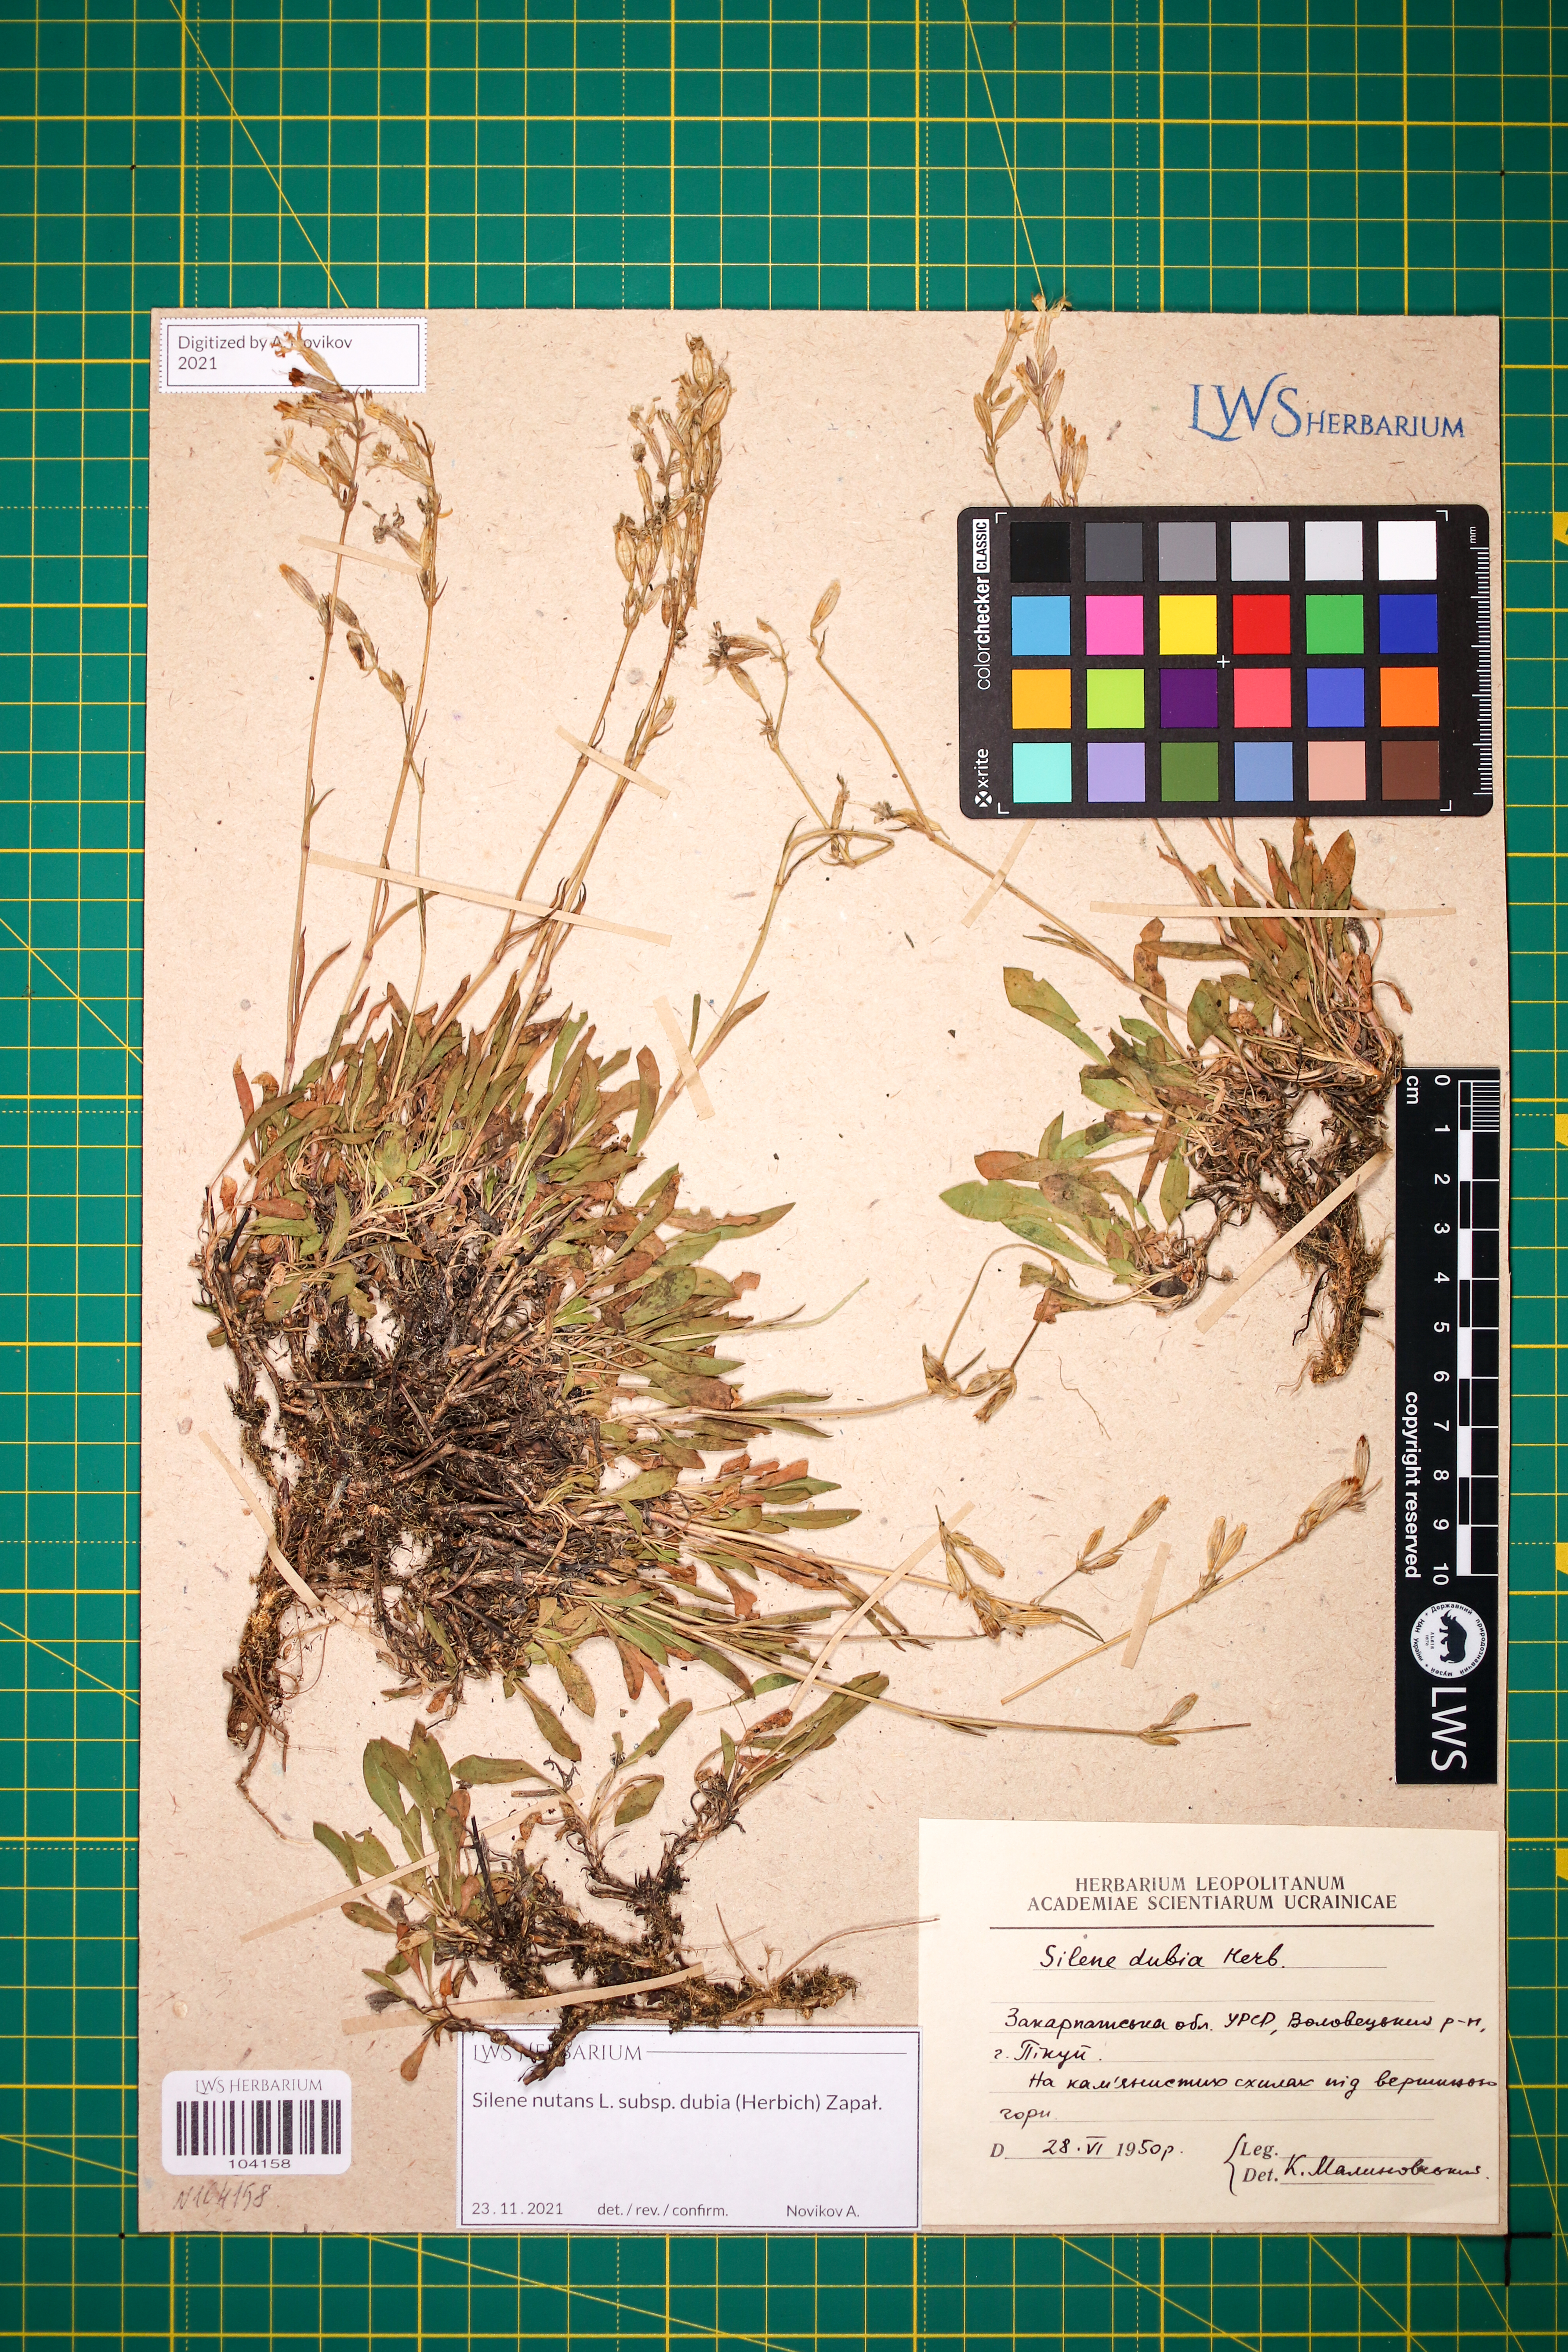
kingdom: Plantae
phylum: Tracheophyta
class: Magnoliopsida
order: Caryophyllales
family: Caryophyllaceae
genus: Silene
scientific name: Silene nutans
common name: Nottingham catchfly
